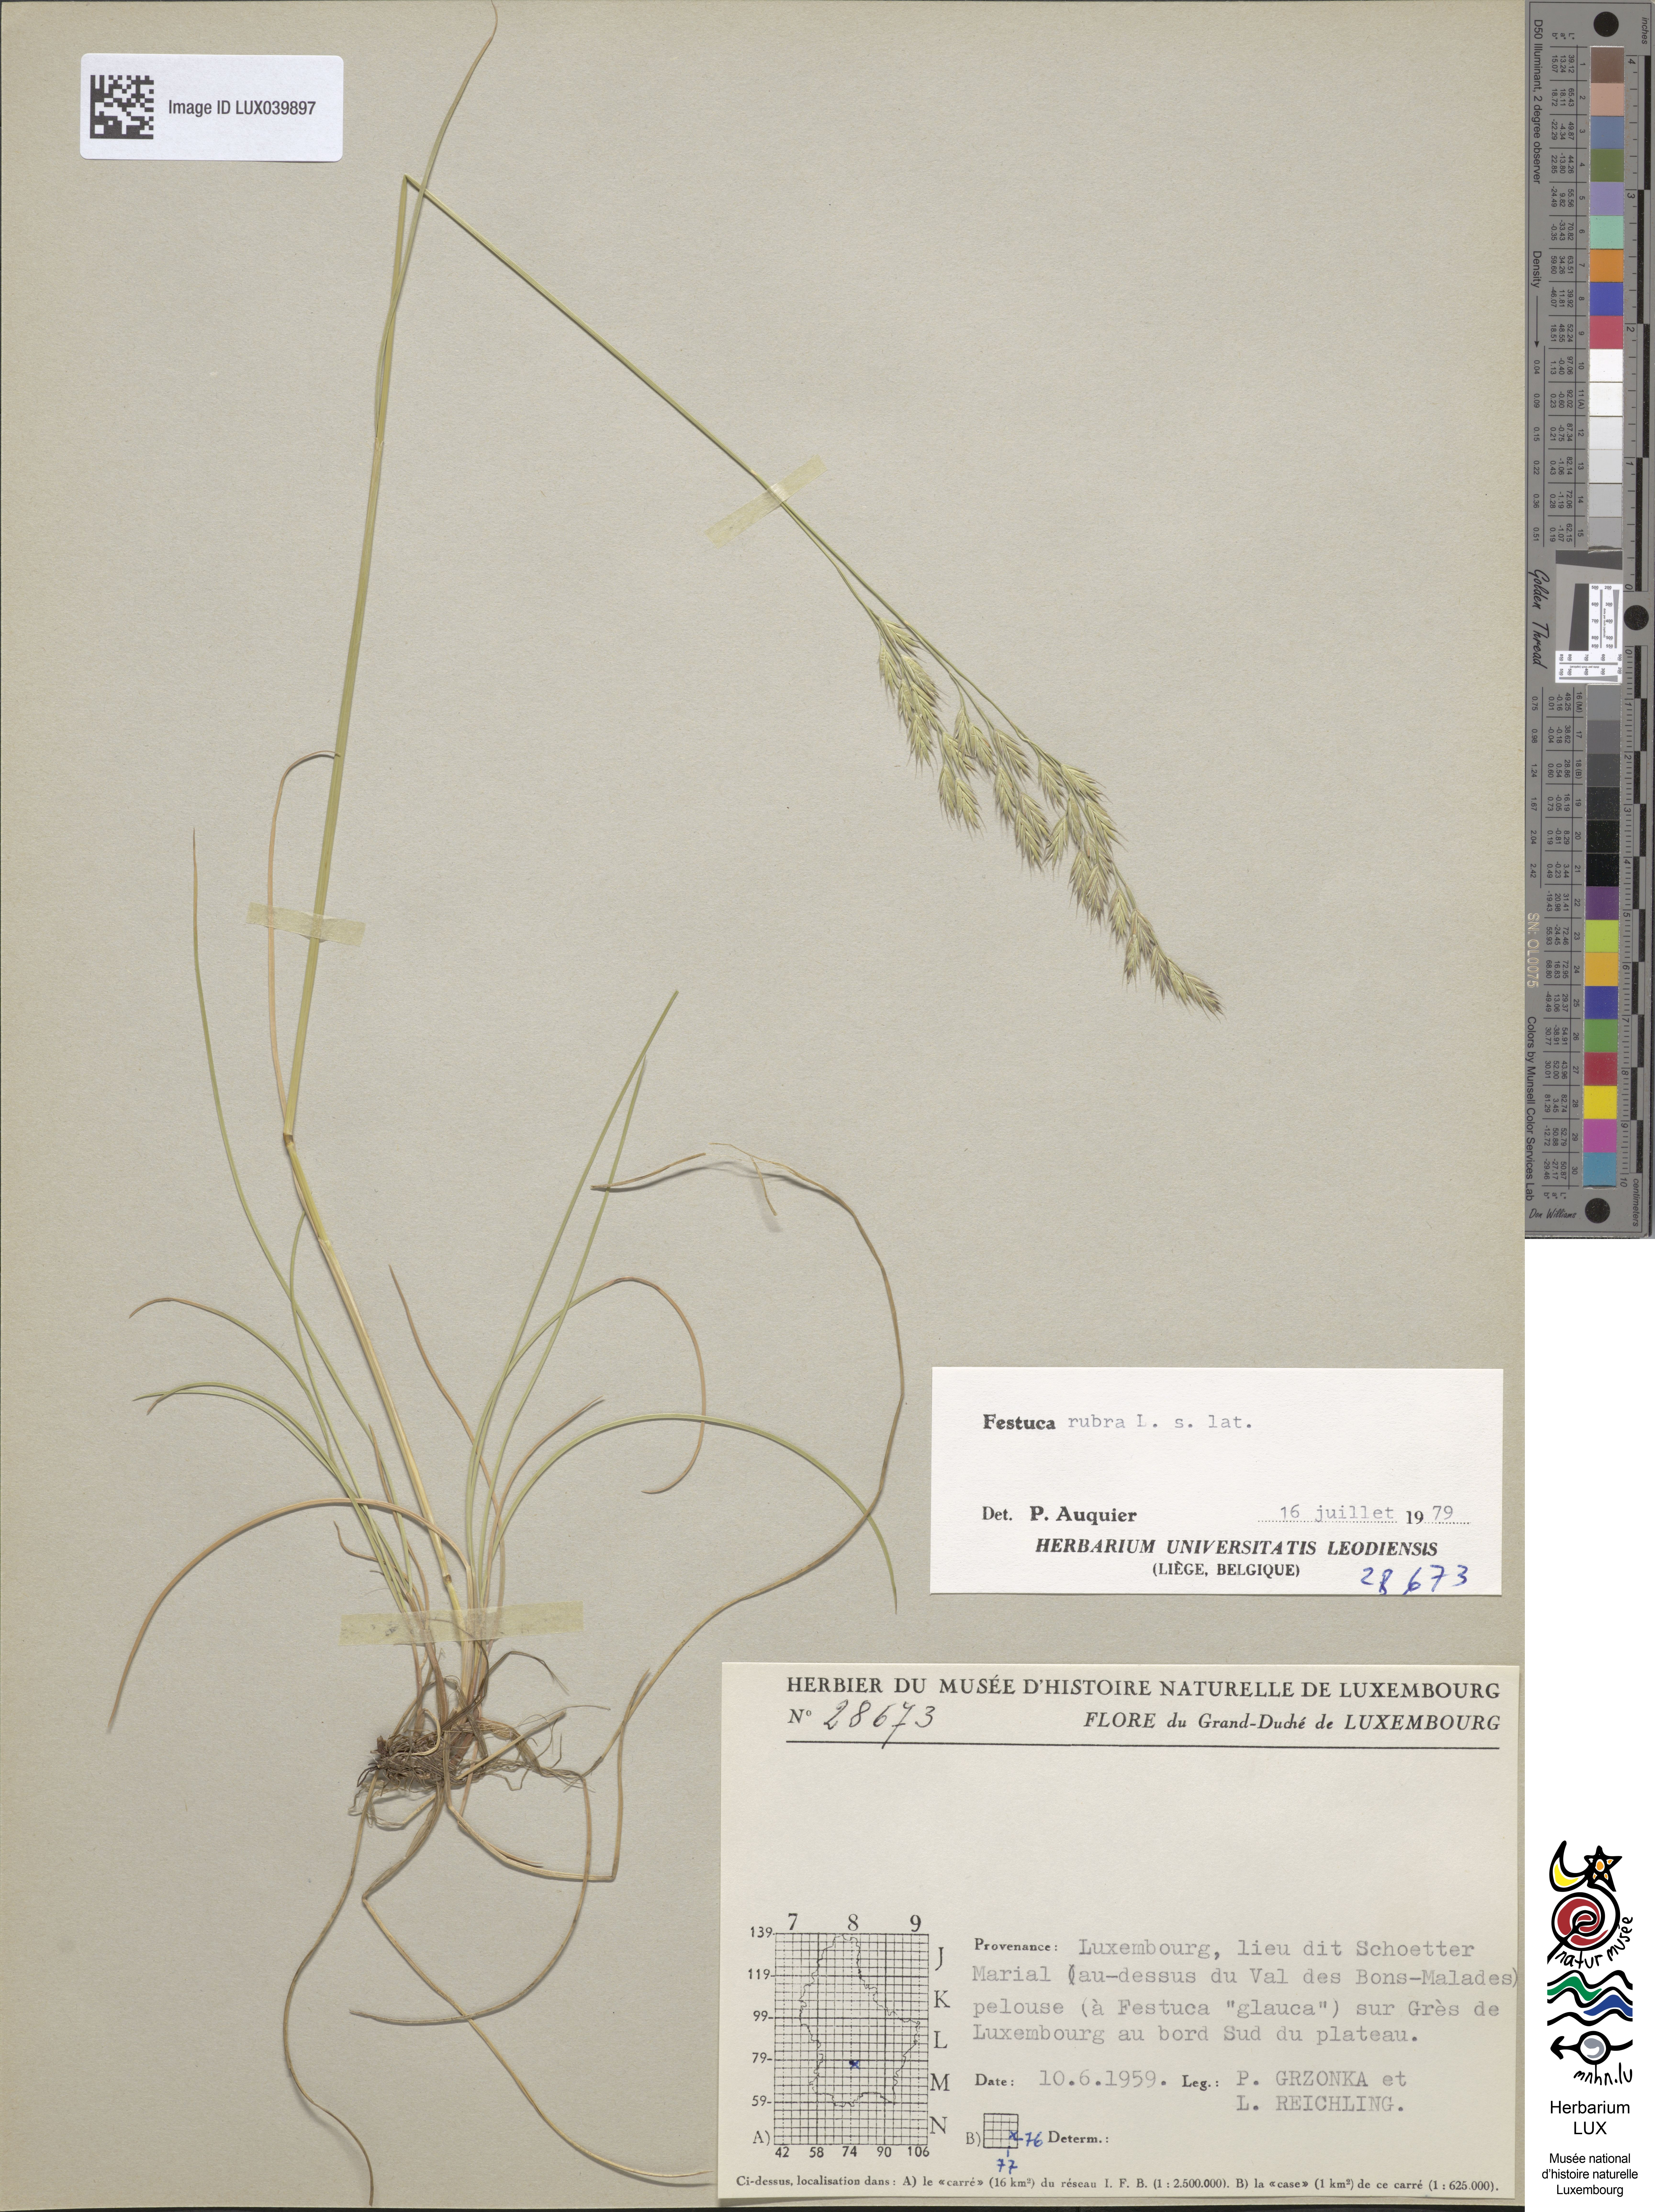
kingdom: Plantae
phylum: Tracheophyta
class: Liliopsida
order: Poales
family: Poaceae
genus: Festuca
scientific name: Festuca rubra
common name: Red fescue
